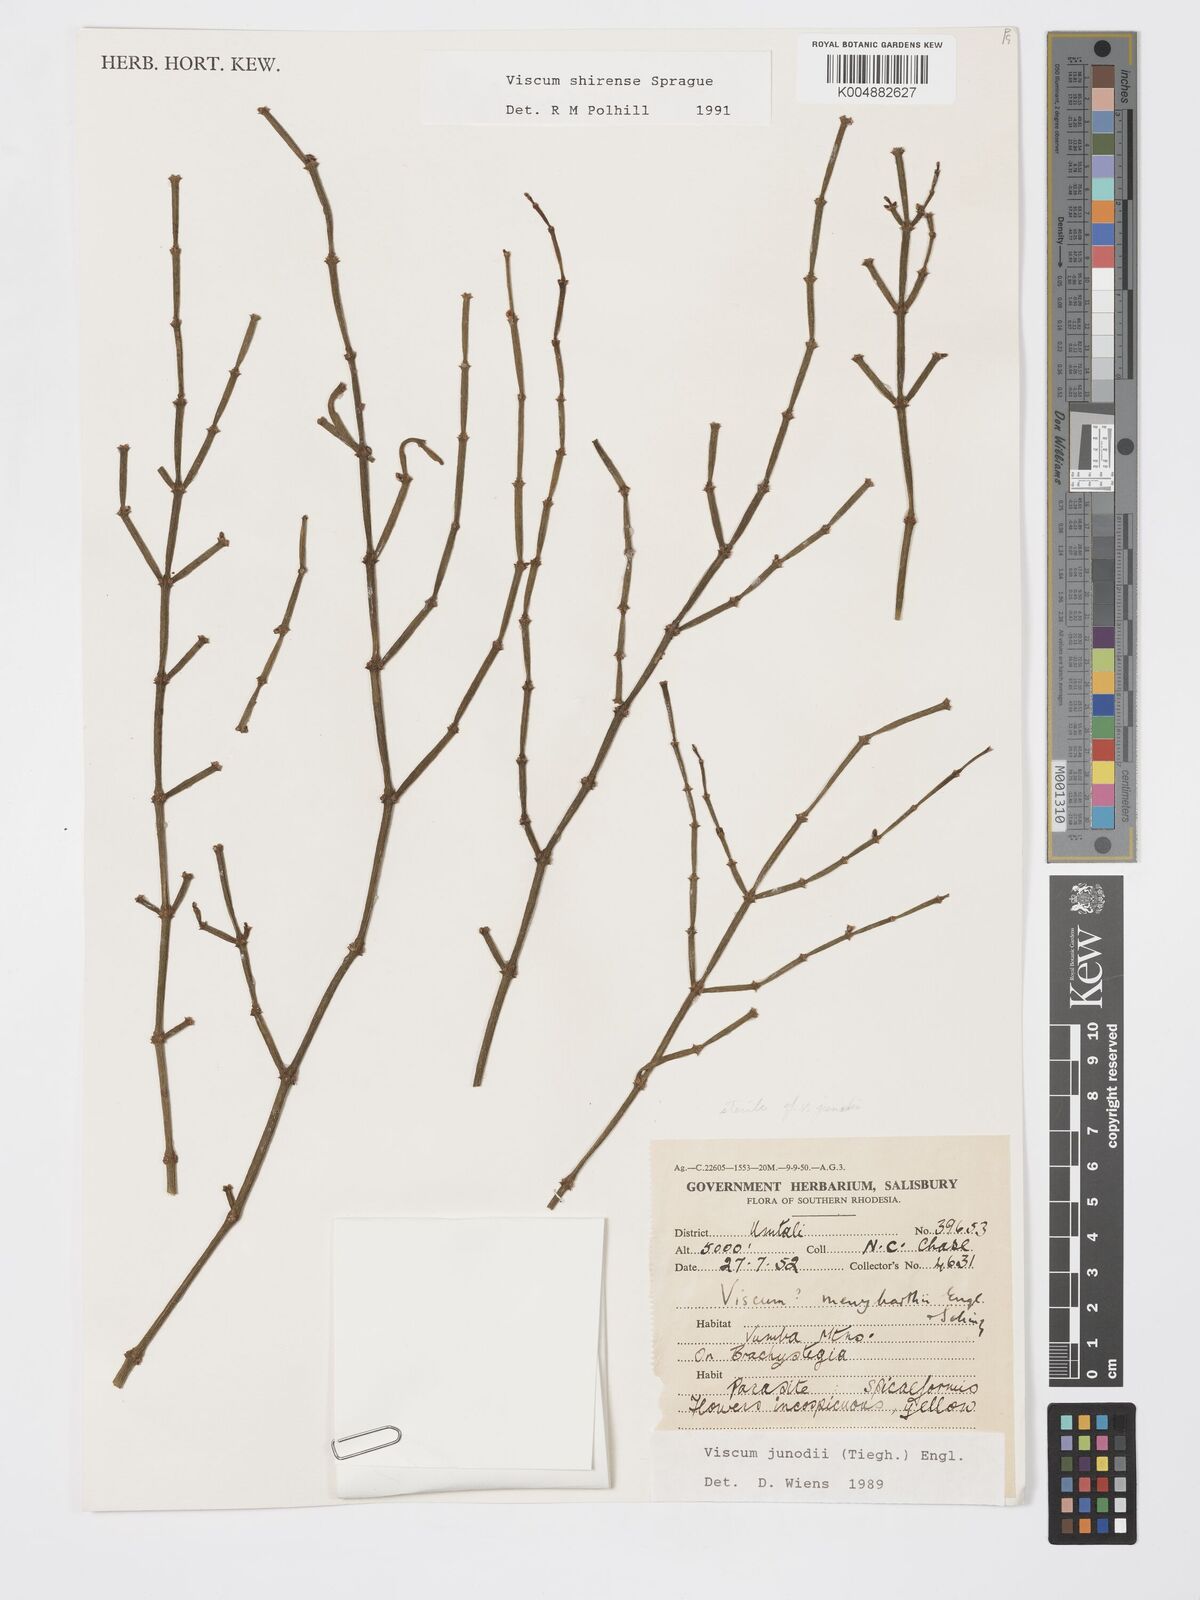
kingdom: Plantae
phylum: Tracheophyta
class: Magnoliopsida
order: Santalales
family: Viscaceae
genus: Viscum
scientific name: Viscum junodii
